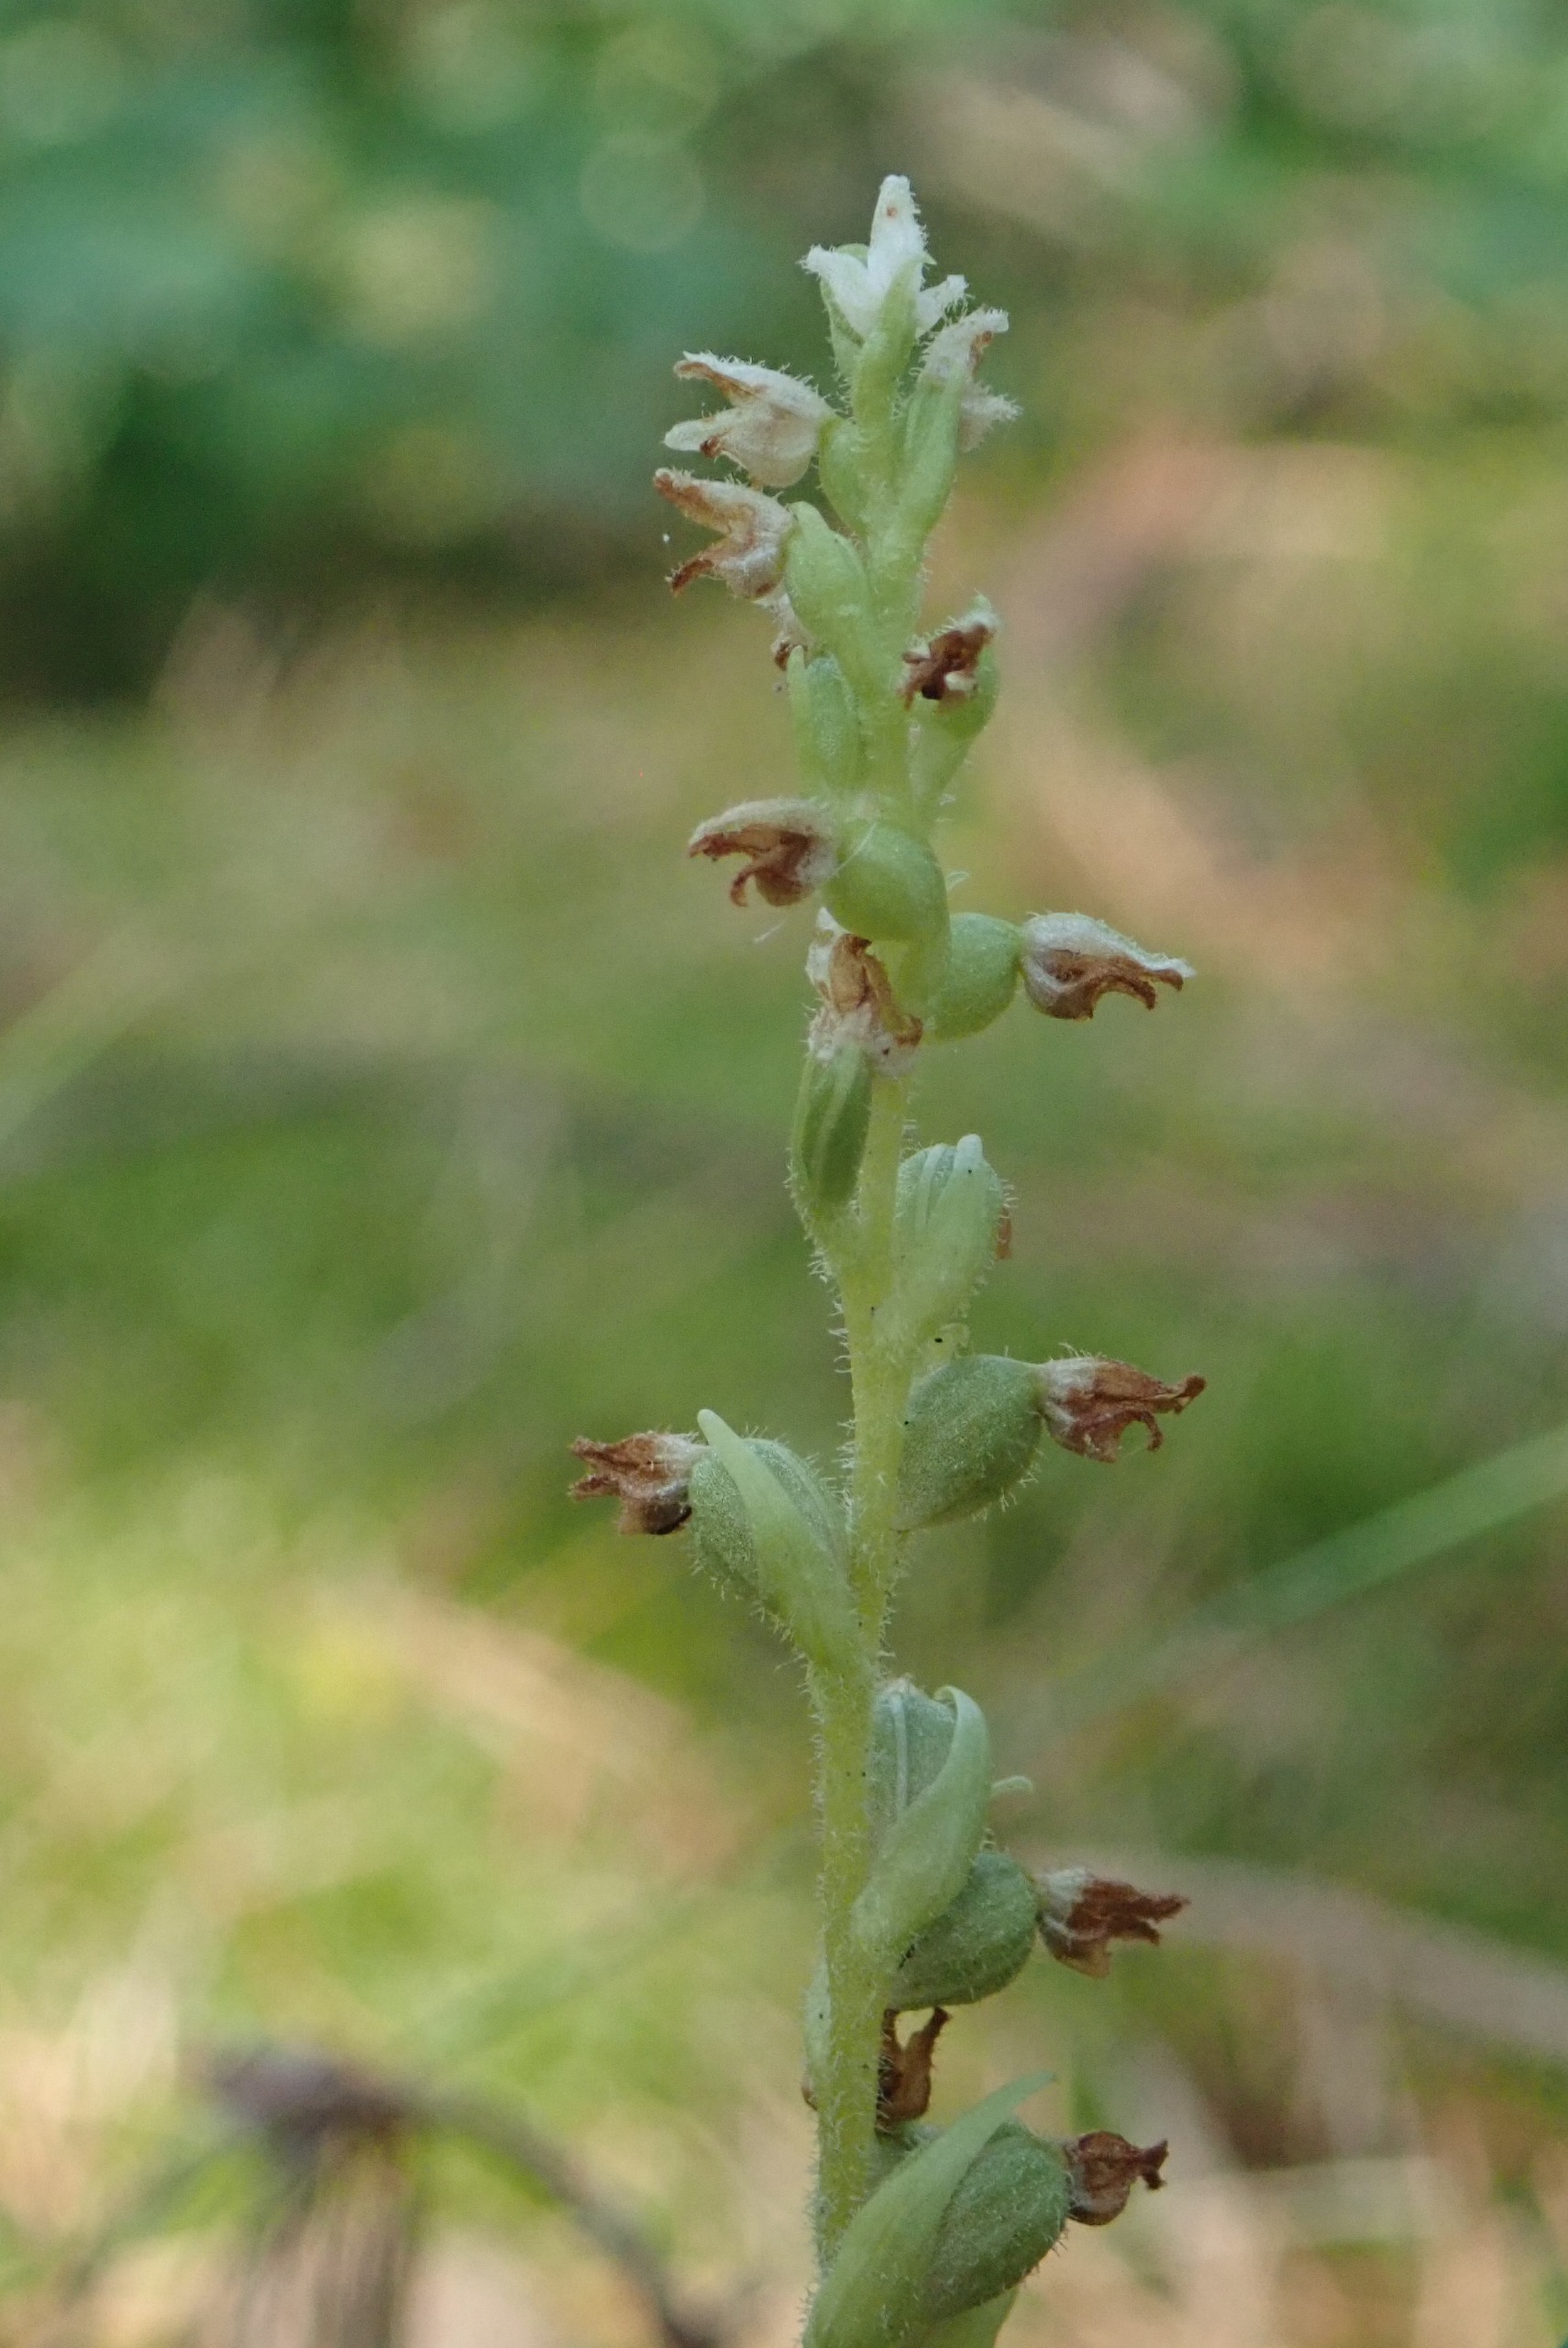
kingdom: Plantae
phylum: Tracheophyta
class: Liliopsida
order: Asparagales
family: Orchidaceae
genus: Goodyera
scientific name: Goodyera repens
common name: Knærod
